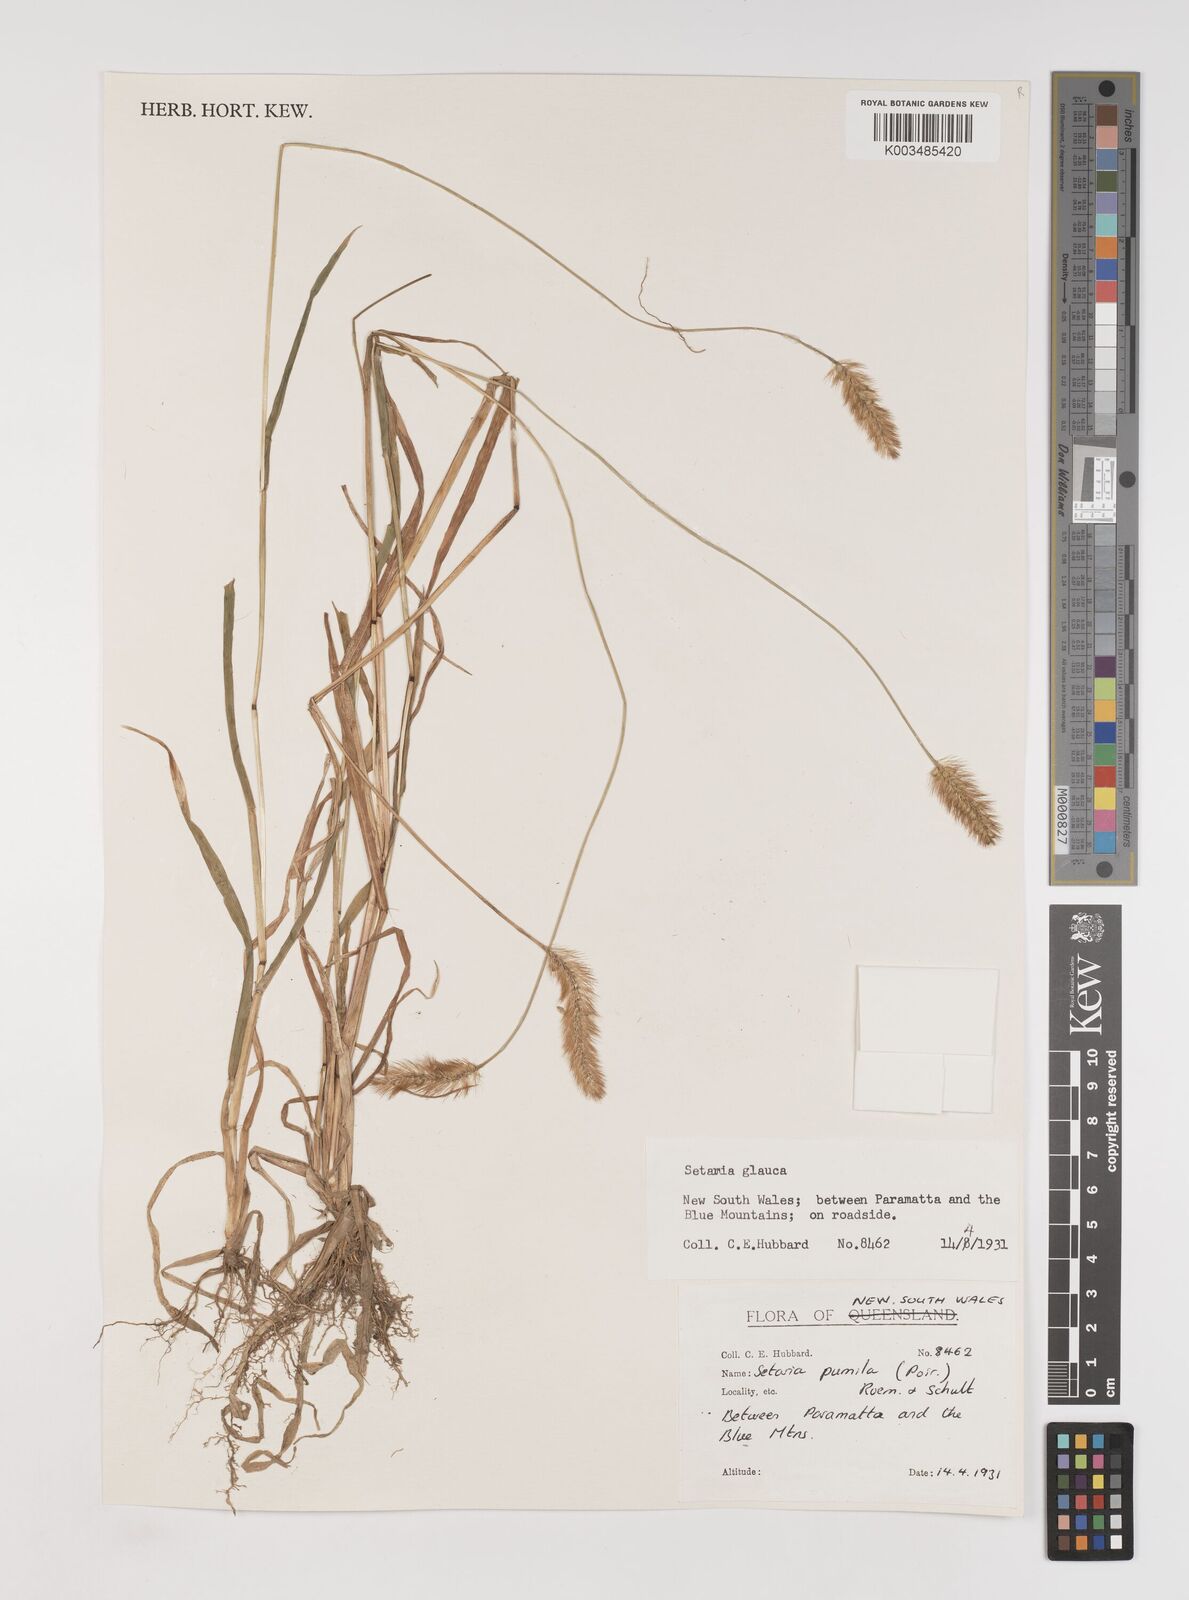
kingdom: Plantae
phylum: Tracheophyta
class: Liliopsida
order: Poales
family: Poaceae
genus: Setaria
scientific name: Setaria pumila
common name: Yellow bristle-grass
